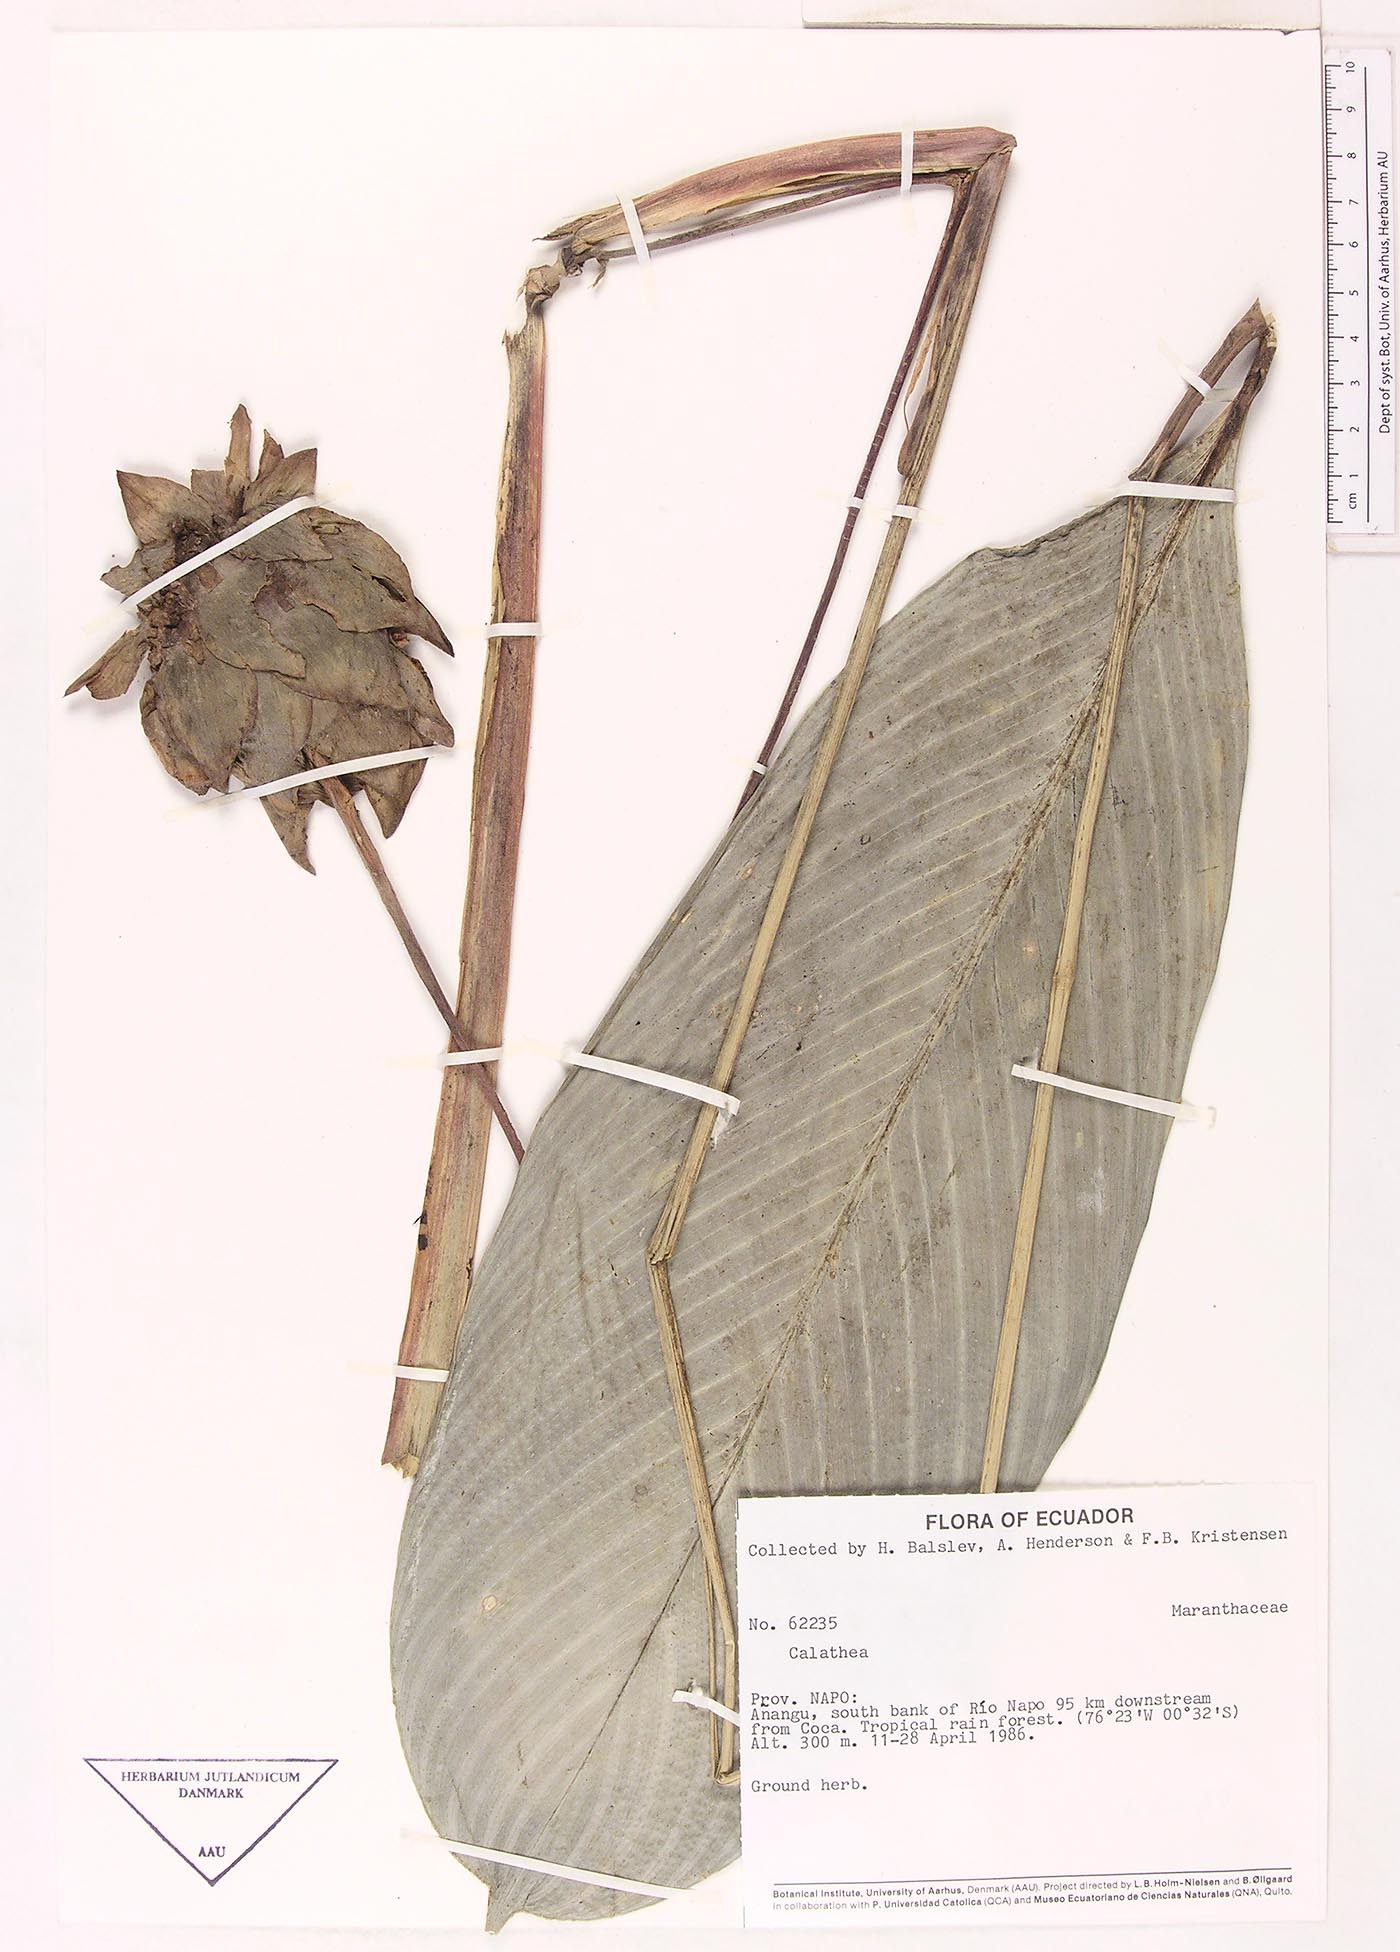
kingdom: Plantae
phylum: Tracheophyta
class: Magnoliopsida
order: Laurales
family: Lauraceae
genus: Goeppertia
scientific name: Goeppertia
